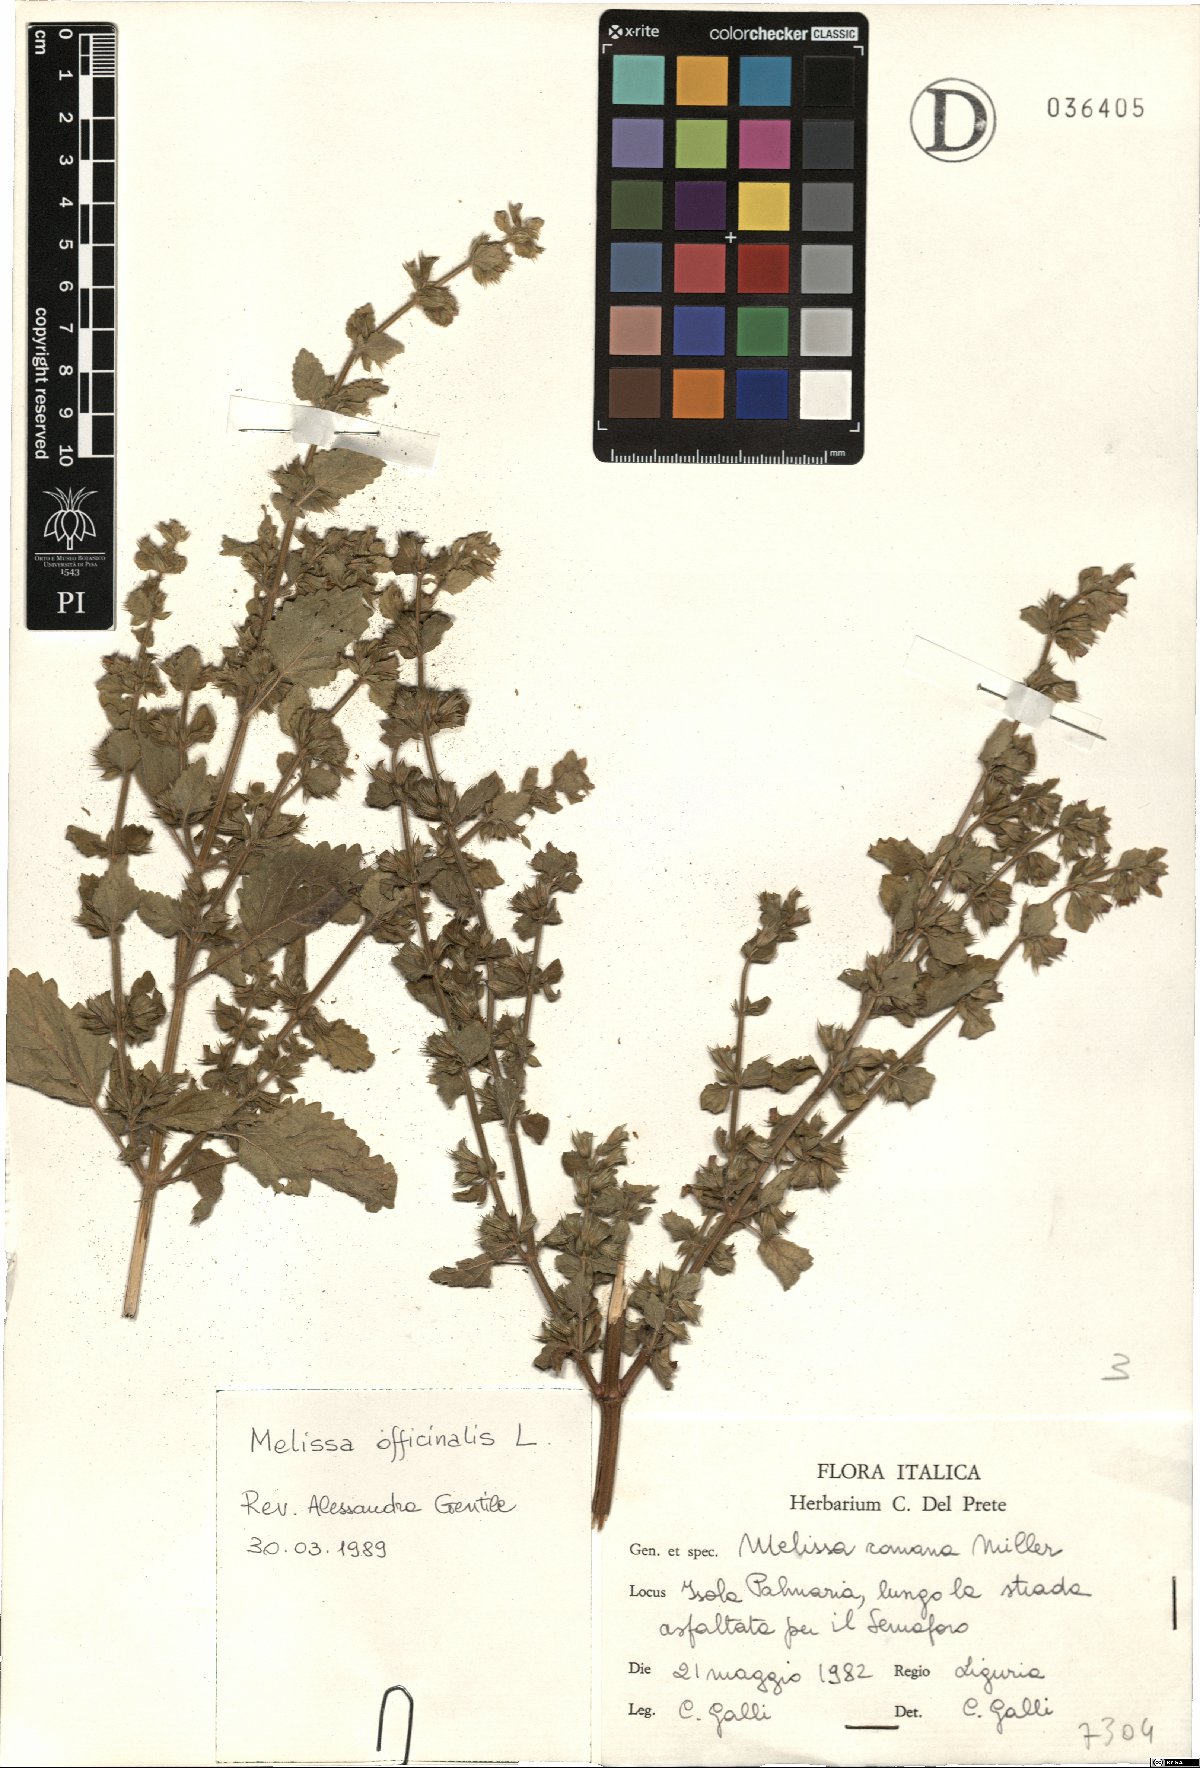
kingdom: Plantae
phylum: Tracheophyta
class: Magnoliopsida
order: Lamiales
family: Lamiaceae
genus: Melissa
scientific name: Melissa officinalis
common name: Balm
